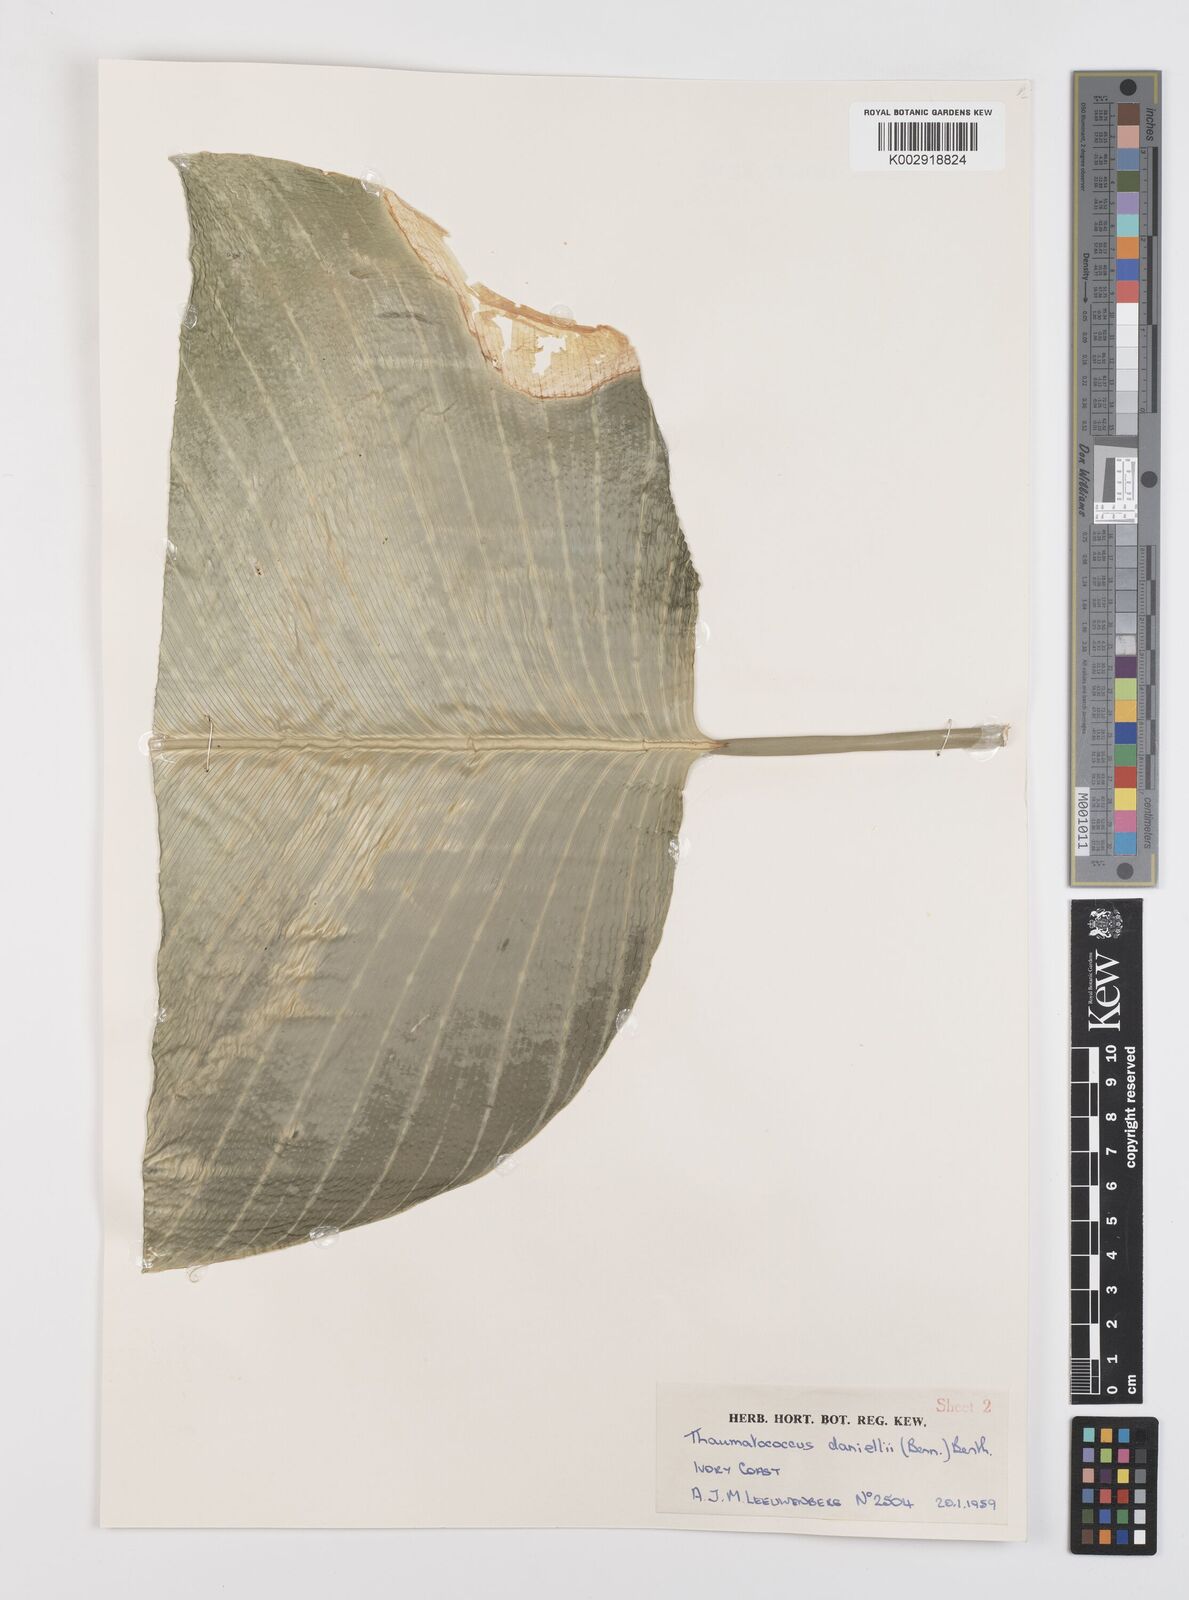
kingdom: Plantae
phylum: Tracheophyta
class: Liliopsida
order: Zingiberales
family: Marantaceae
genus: Thaumatococcus
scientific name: Thaumatococcus daniellii
